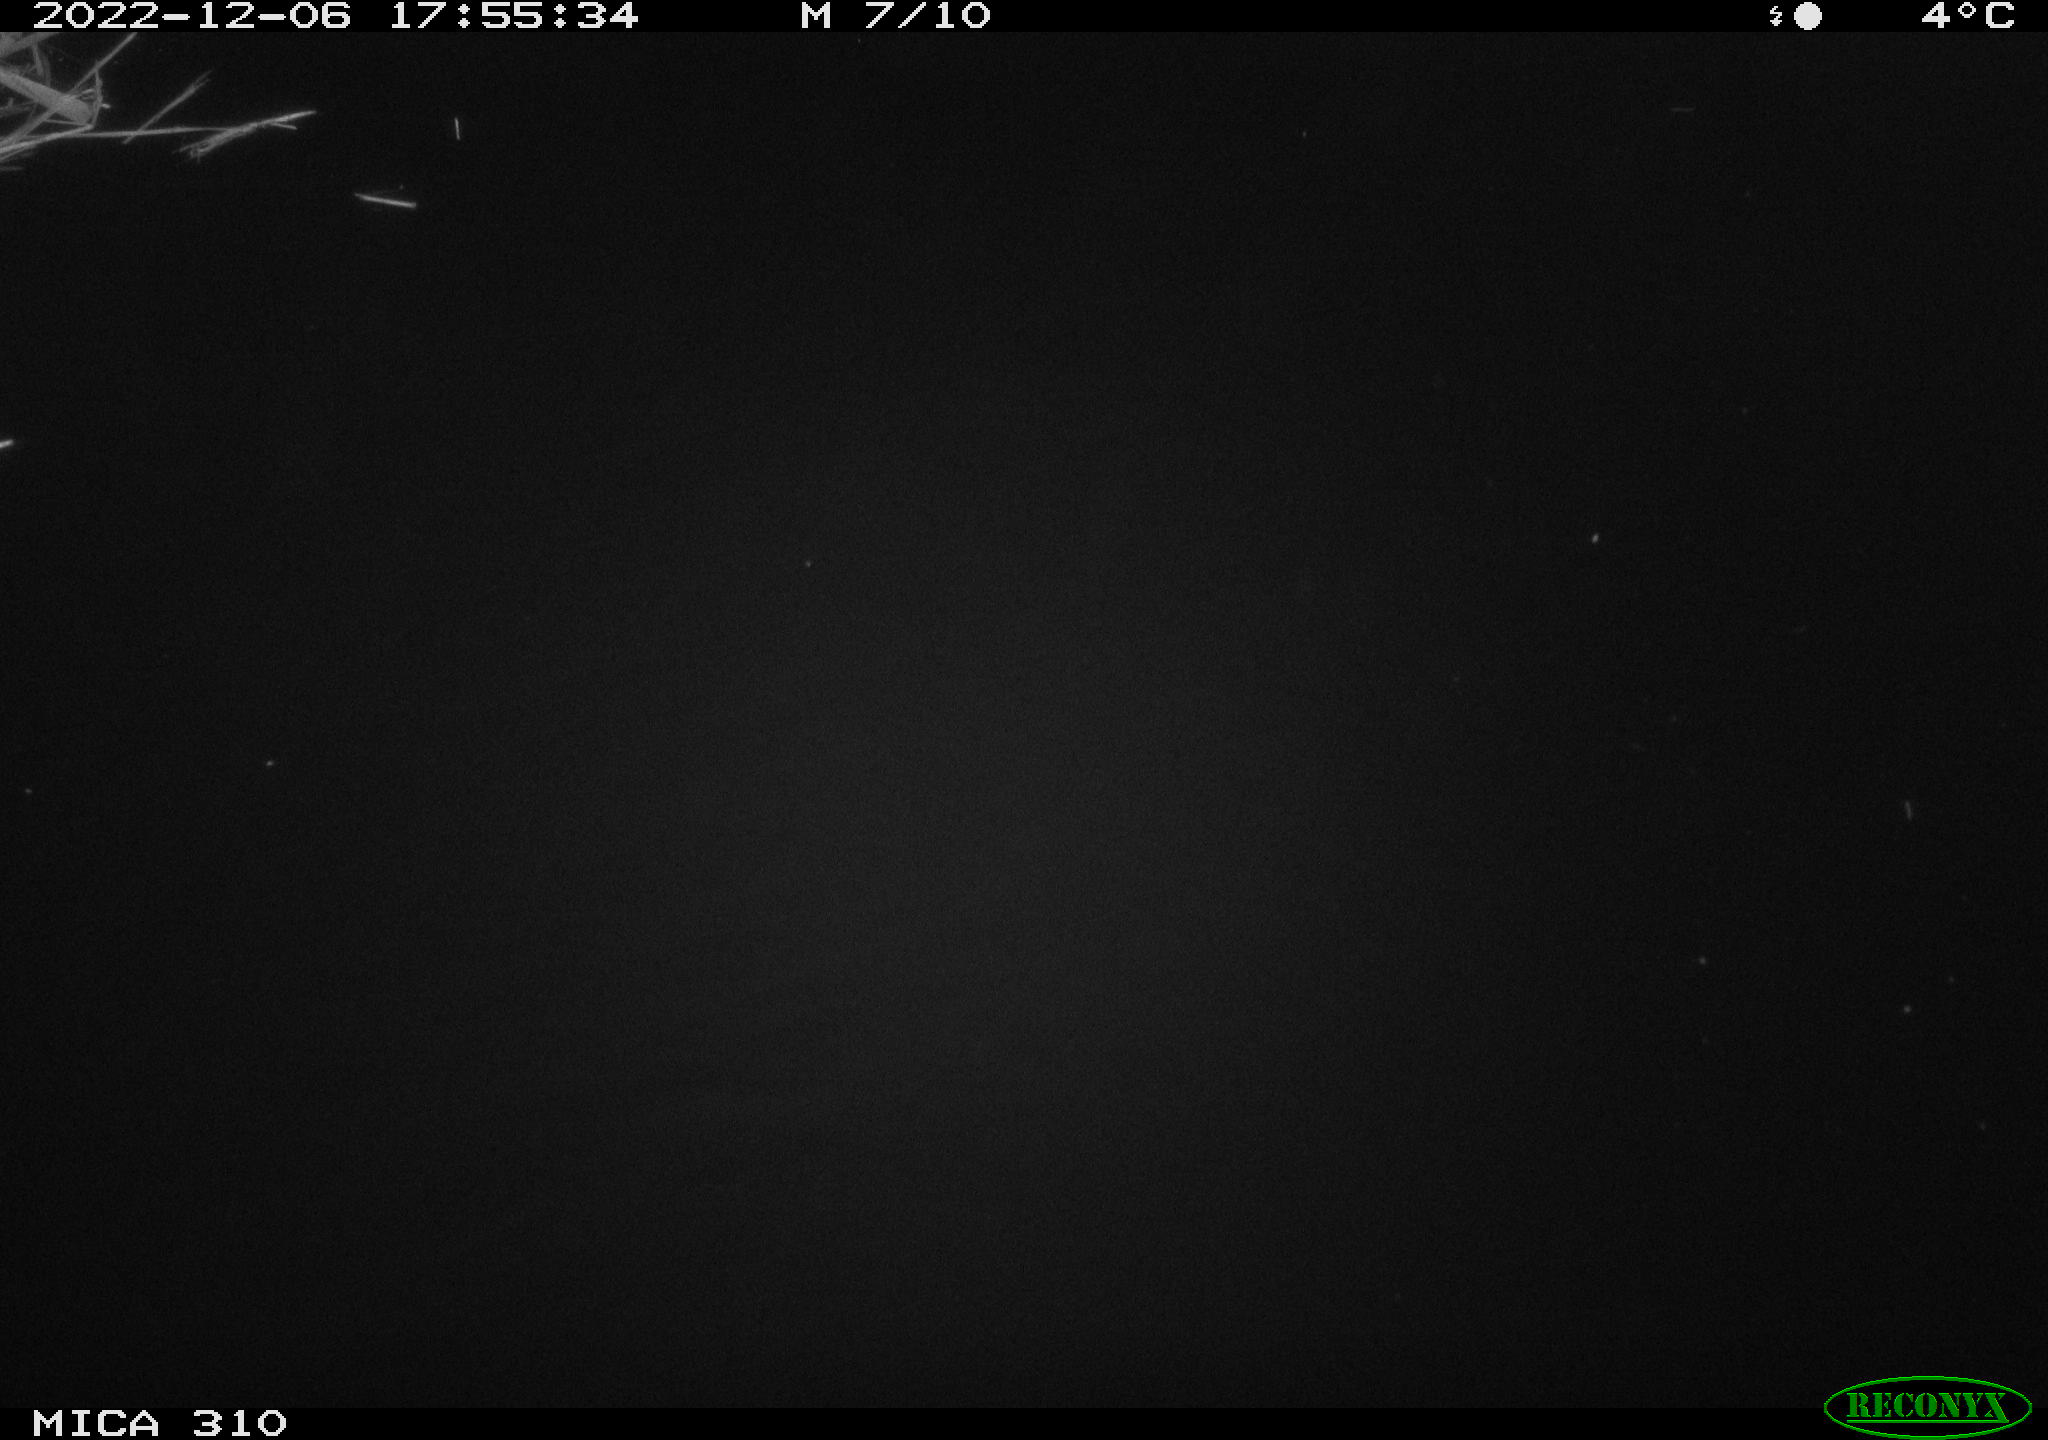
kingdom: Animalia
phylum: Chordata
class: Mammalia
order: Rodentia
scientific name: Rodentia
